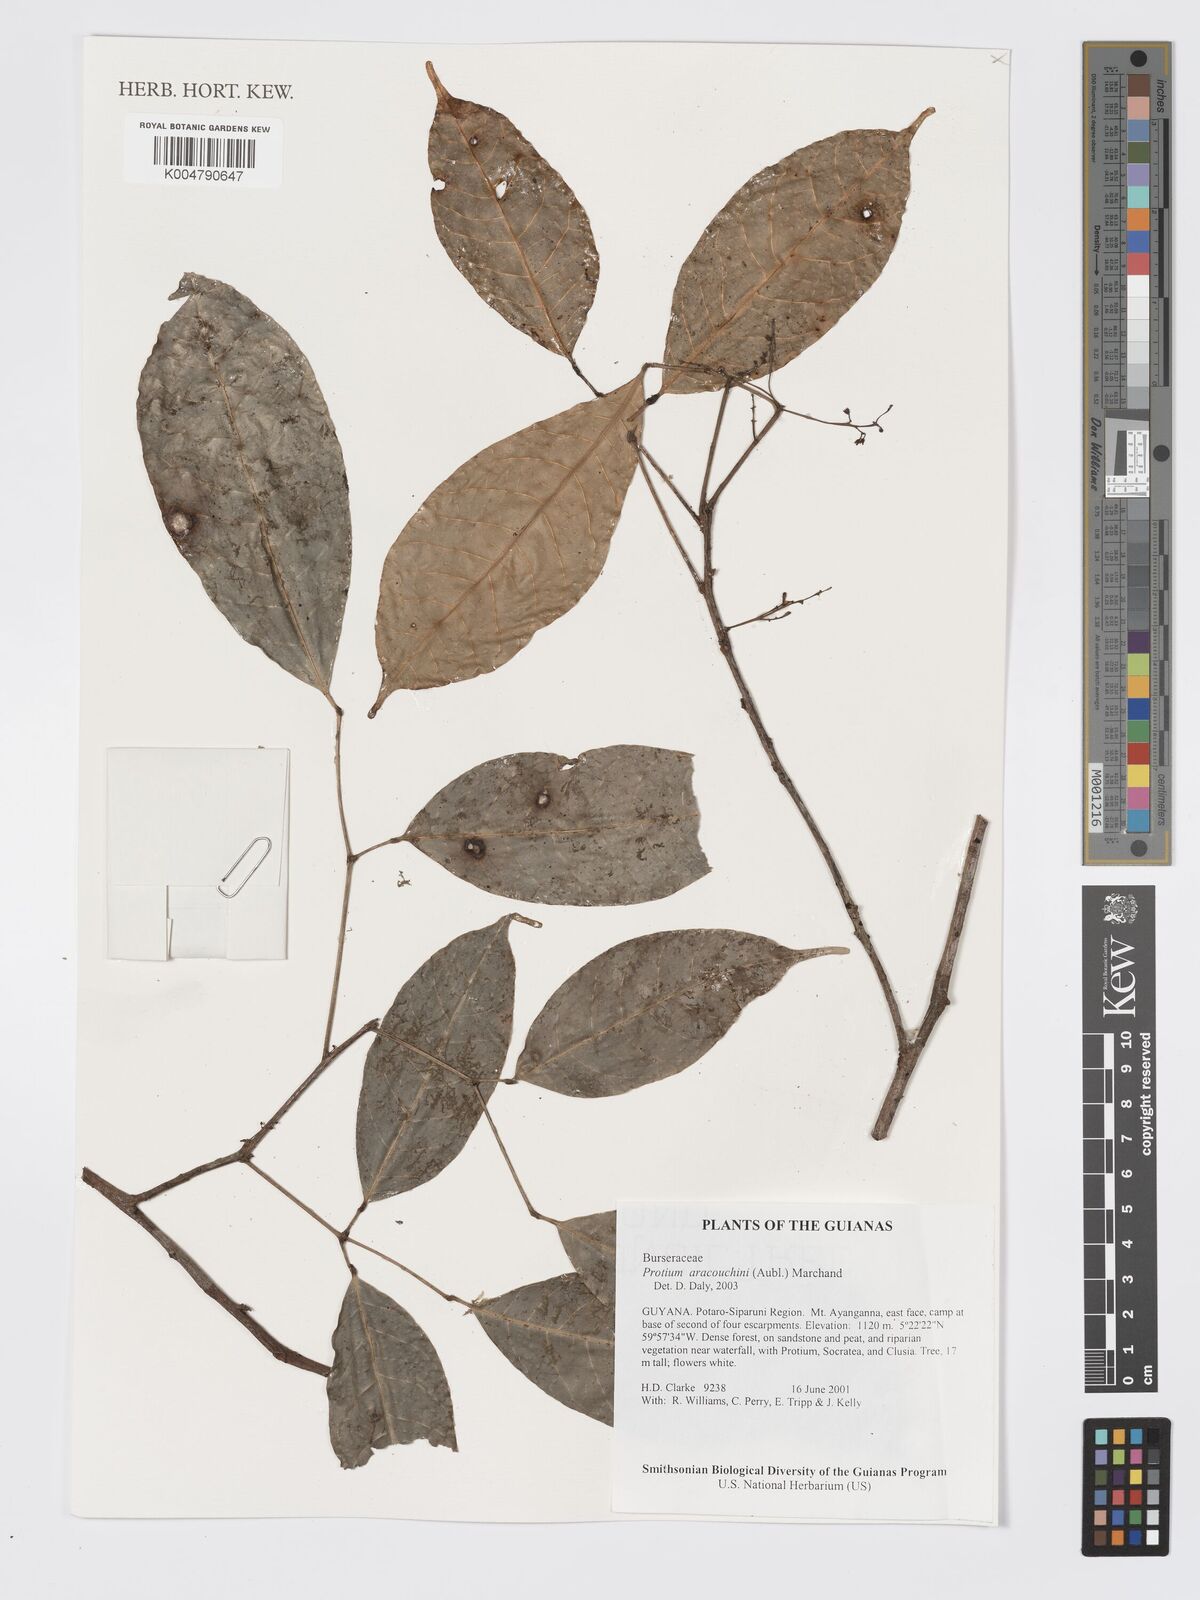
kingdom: Plantae
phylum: Tracheophyta
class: Magnoliopsida
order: Sapindales
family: Burseraceae
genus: Protium
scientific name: Protium aracouchini
